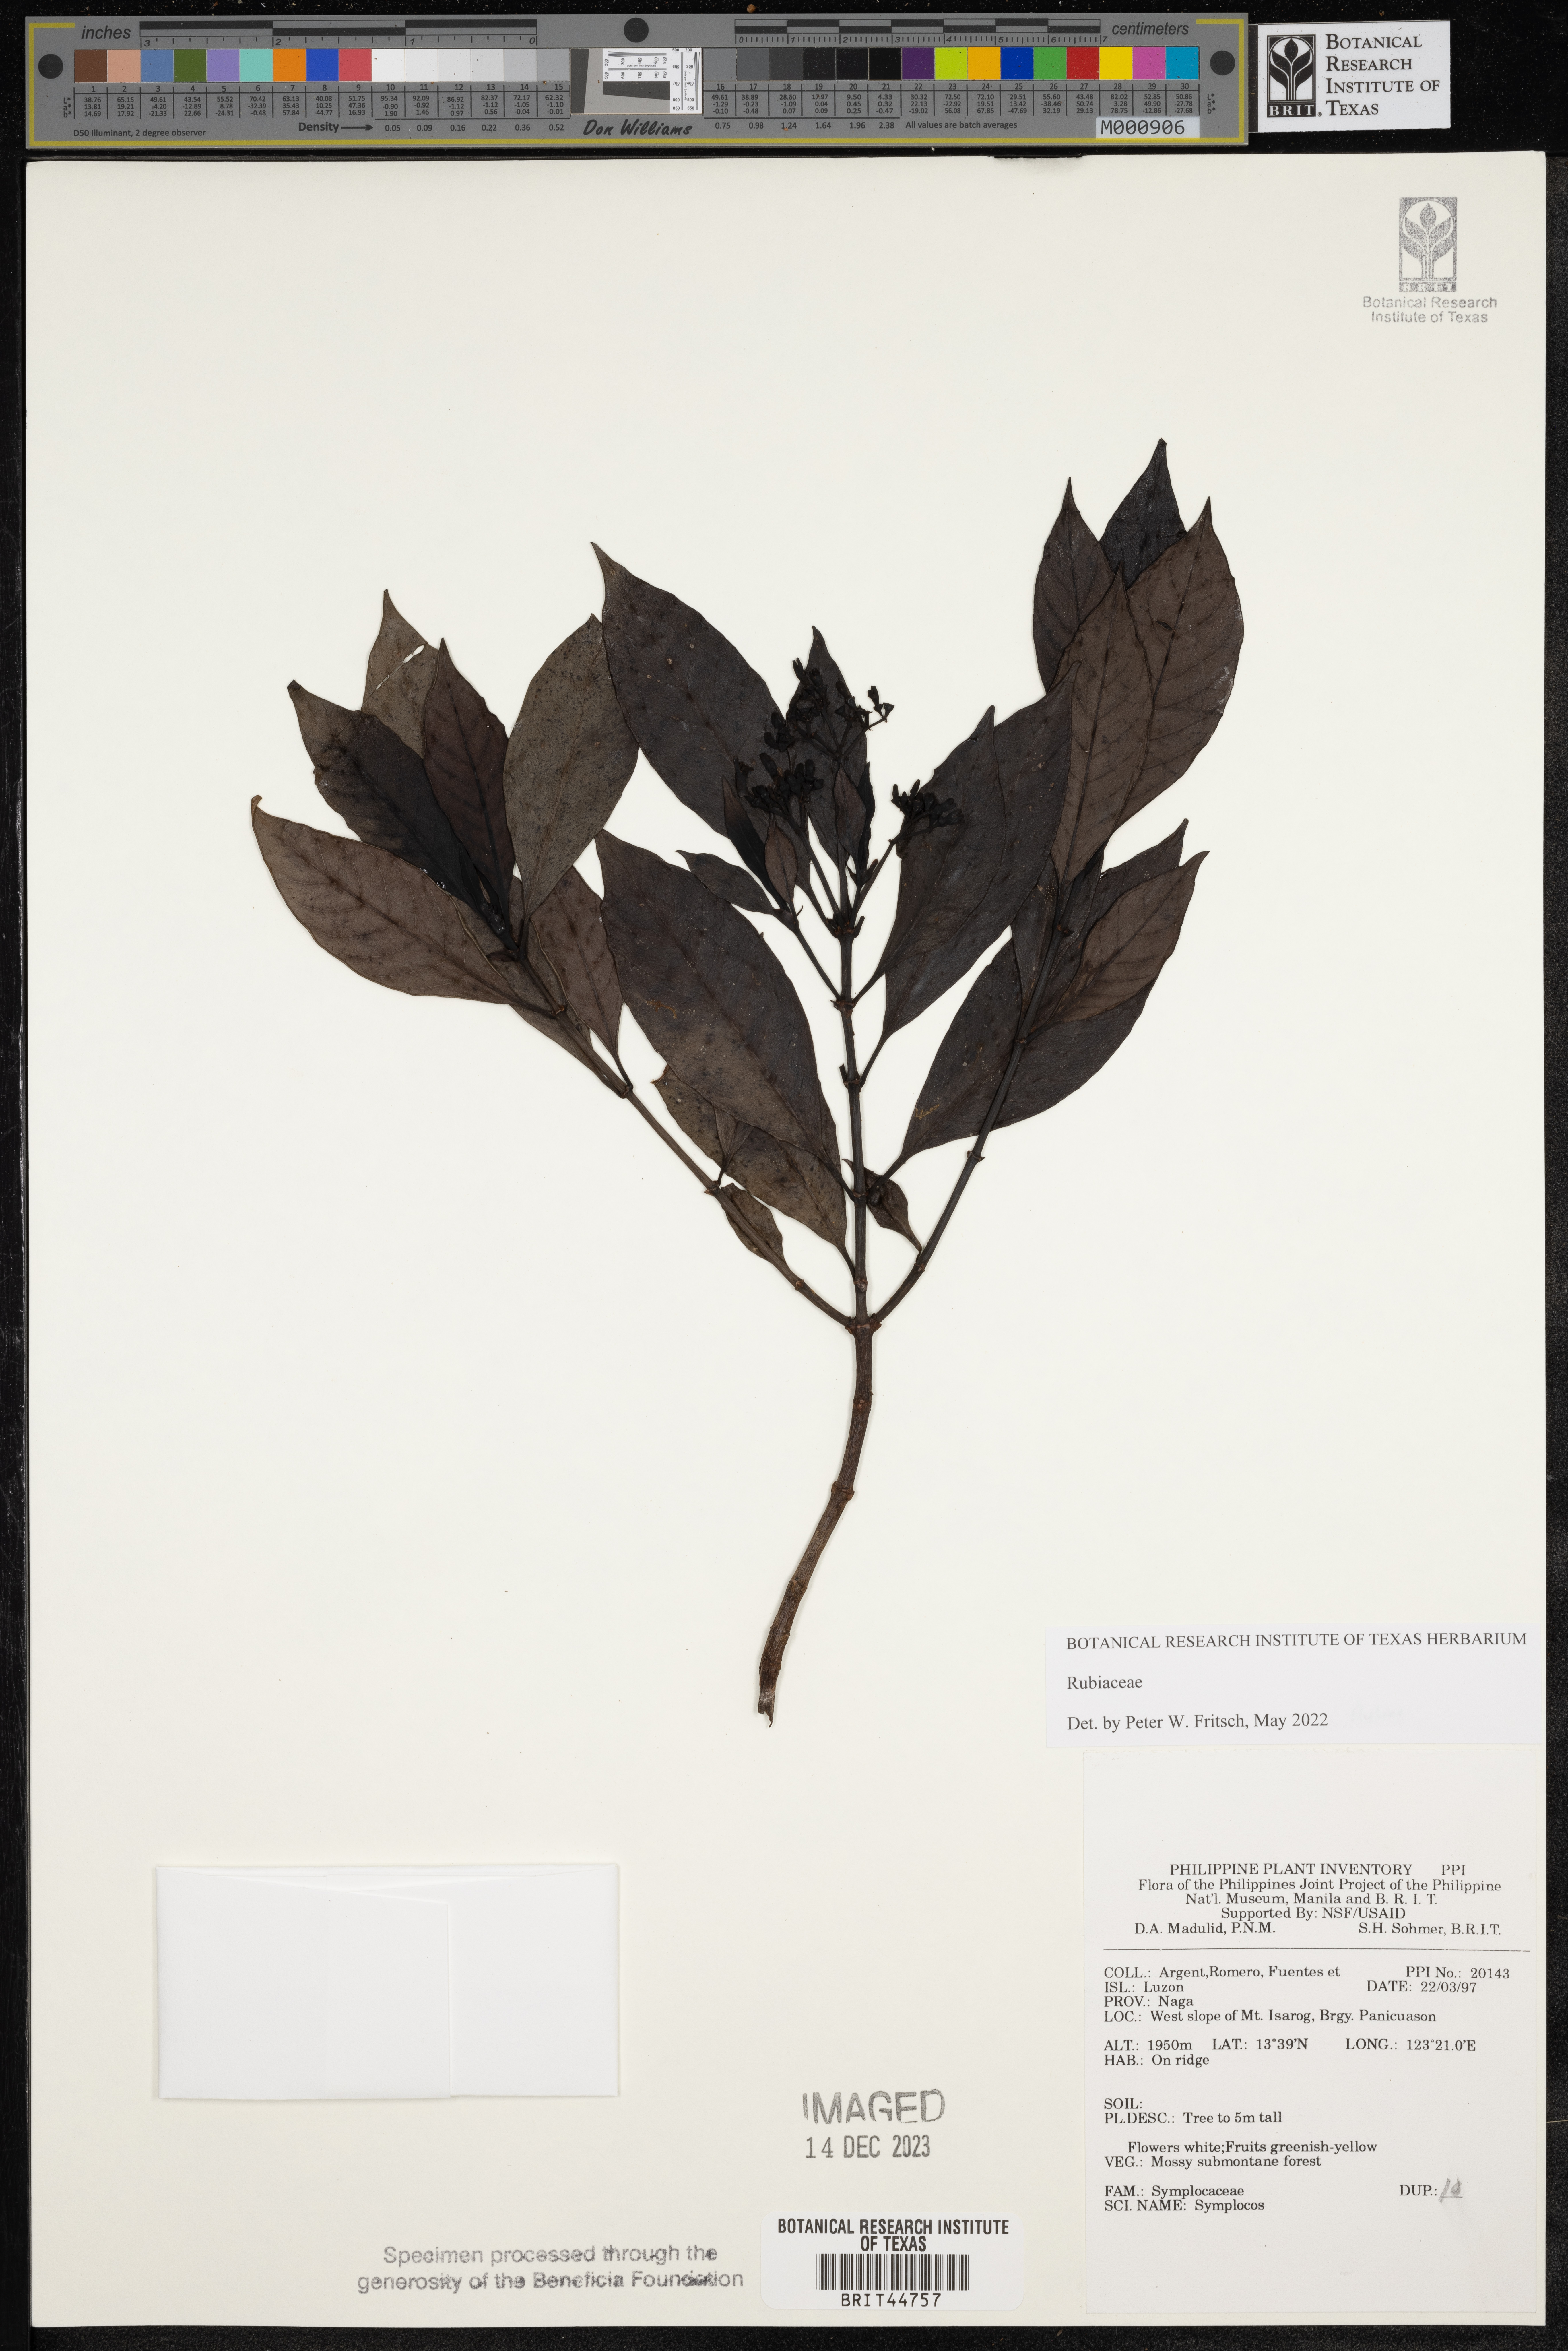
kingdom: Plantae
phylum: Tracheophyta
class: Magnoliopsida
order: Ericales
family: Symplocaceae
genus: Symplocos
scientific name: Symplocos
